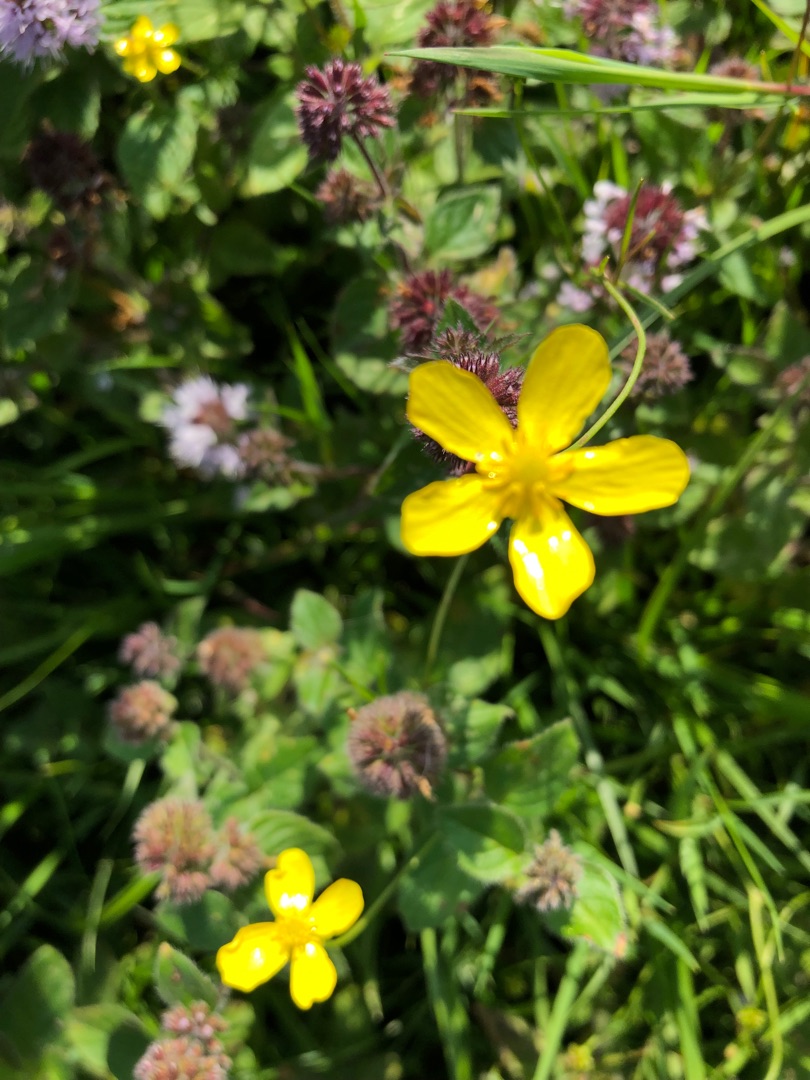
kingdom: Plantae
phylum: Tracheophyta
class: Magnoliopsida
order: Ranunculales
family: Ranunculaceae
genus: Ranunculus
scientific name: Ranunculus
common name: Ranunkelslægten
